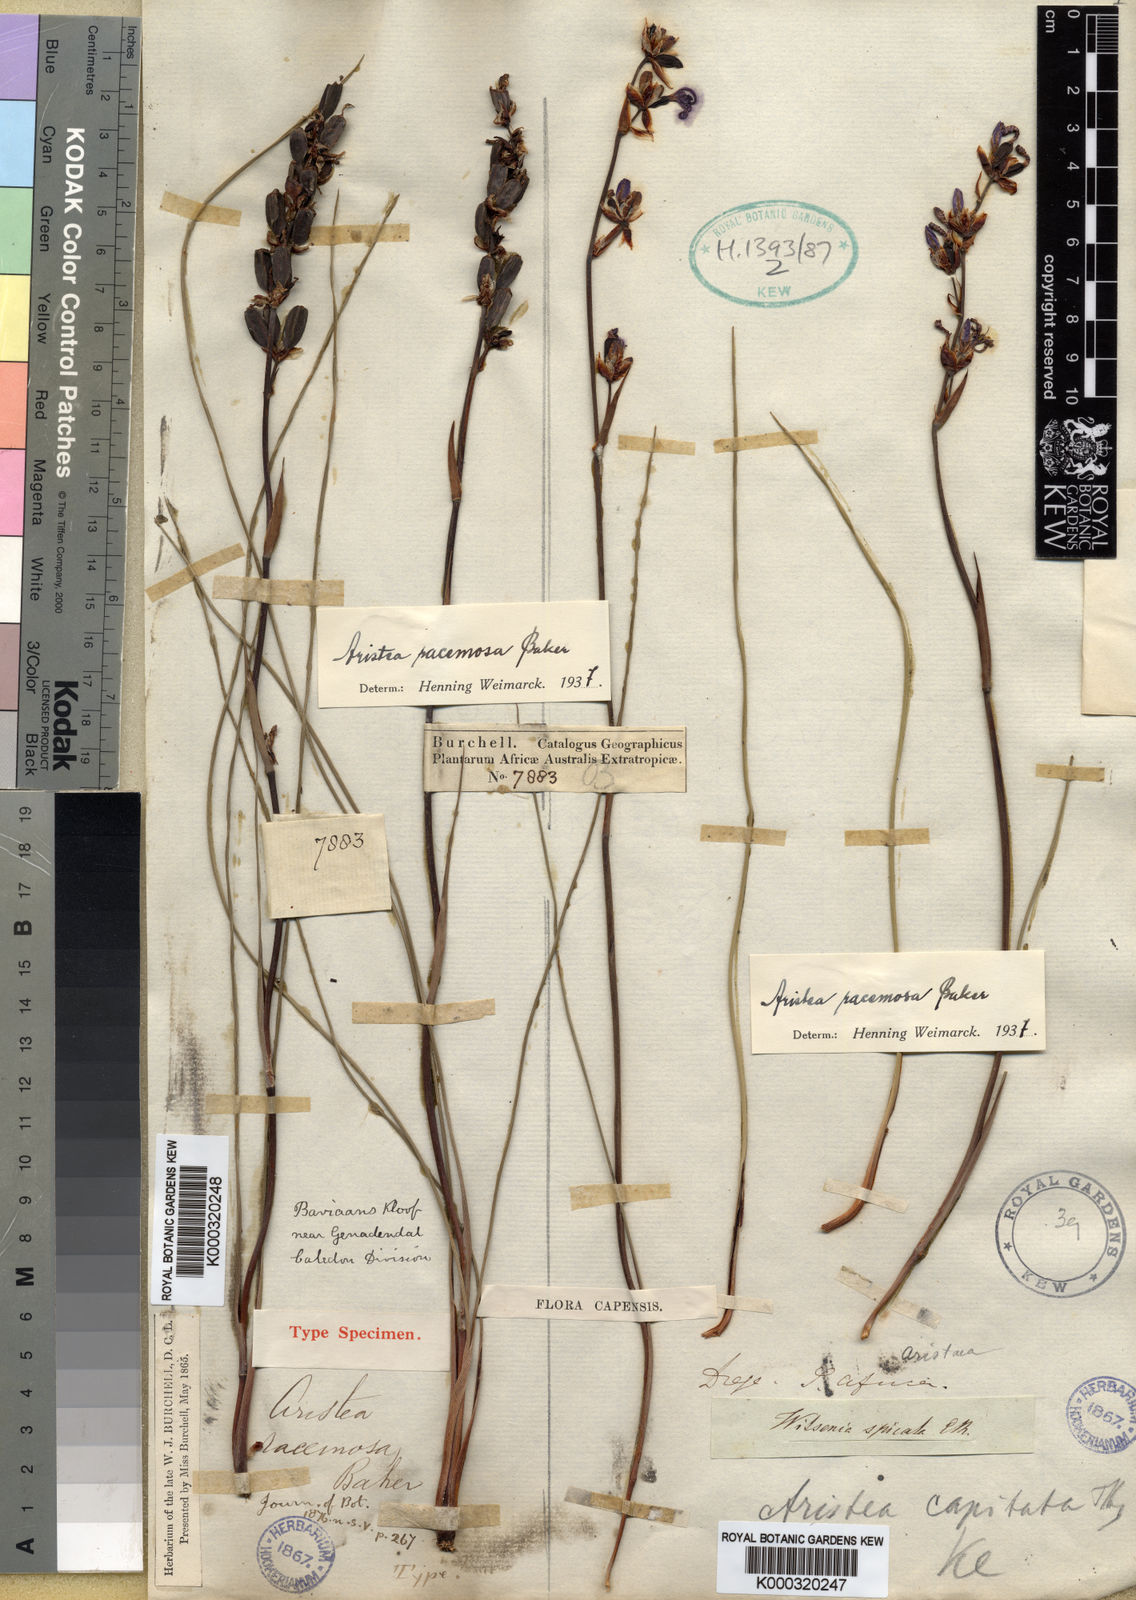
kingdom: Plantae
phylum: Tracheophyta
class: Liliopsida
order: Asparagales
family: Iridaceae
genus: Aristea
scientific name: Aristea racemosa
